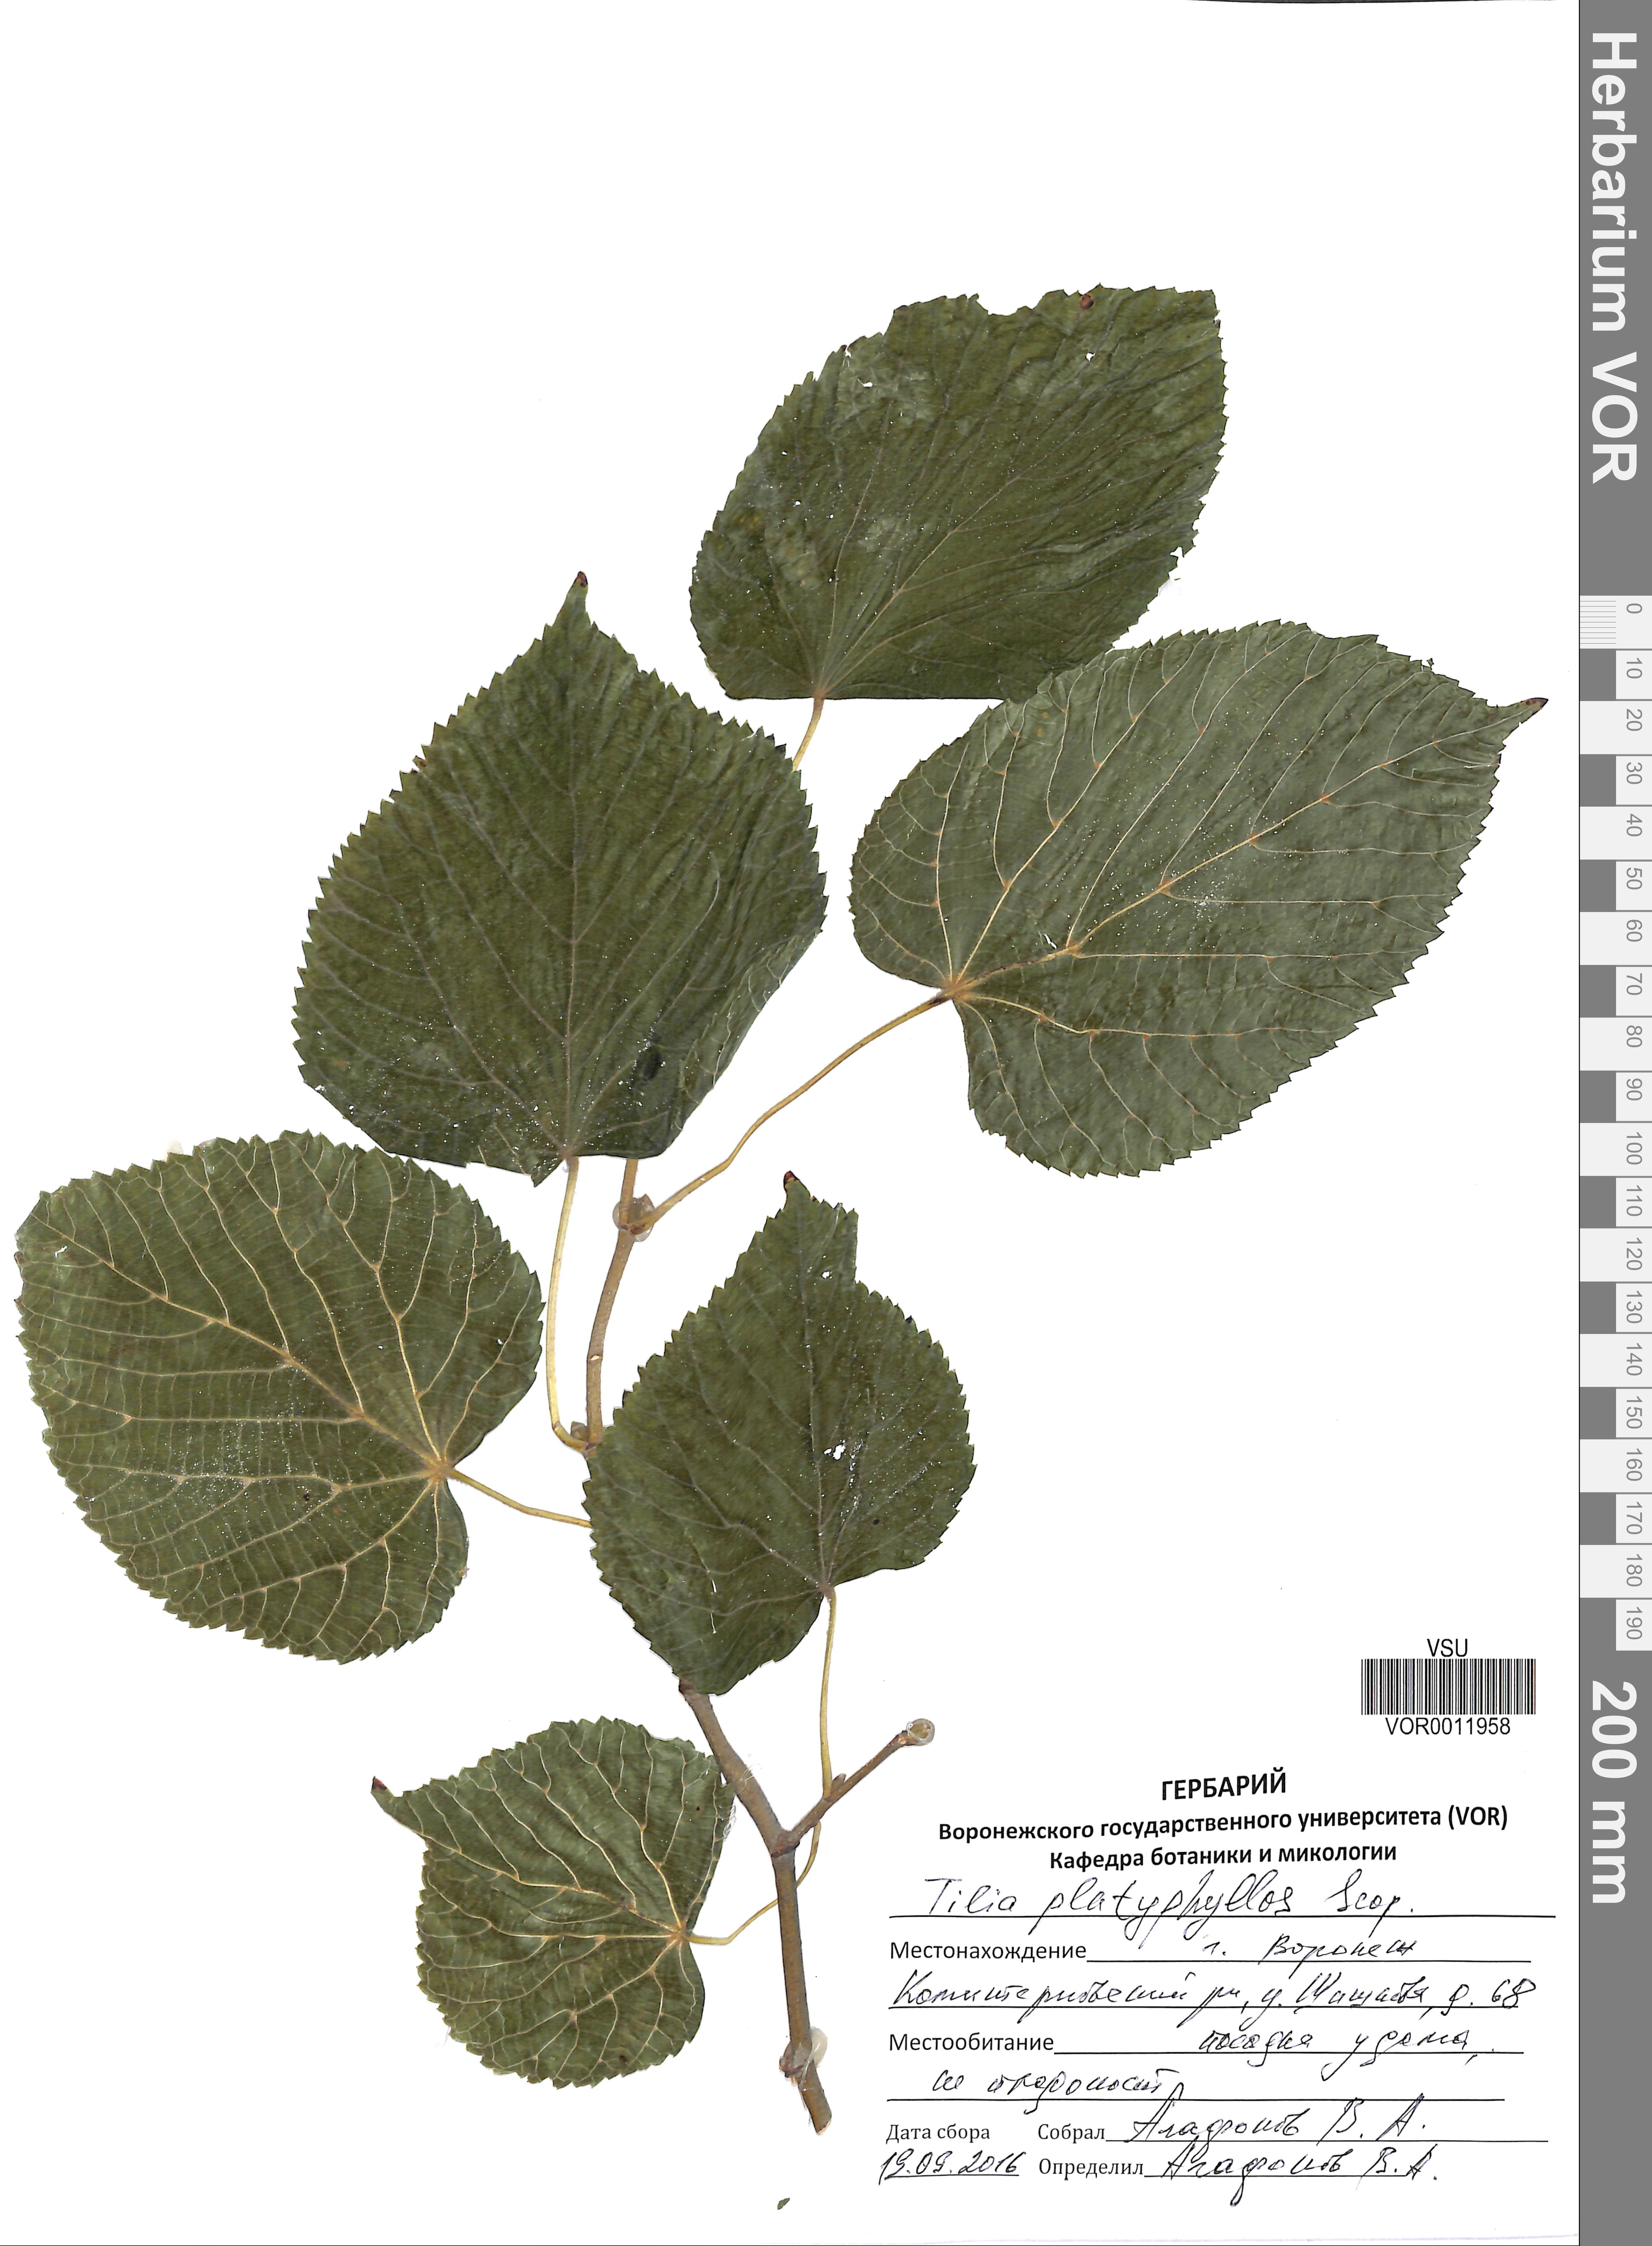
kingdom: Plantae
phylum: Tracheophyta
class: Magnoliopsida
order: Malvales
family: Malvaceae
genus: Tilia
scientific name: Tilia platyphyllos
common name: Large-leaved lime
